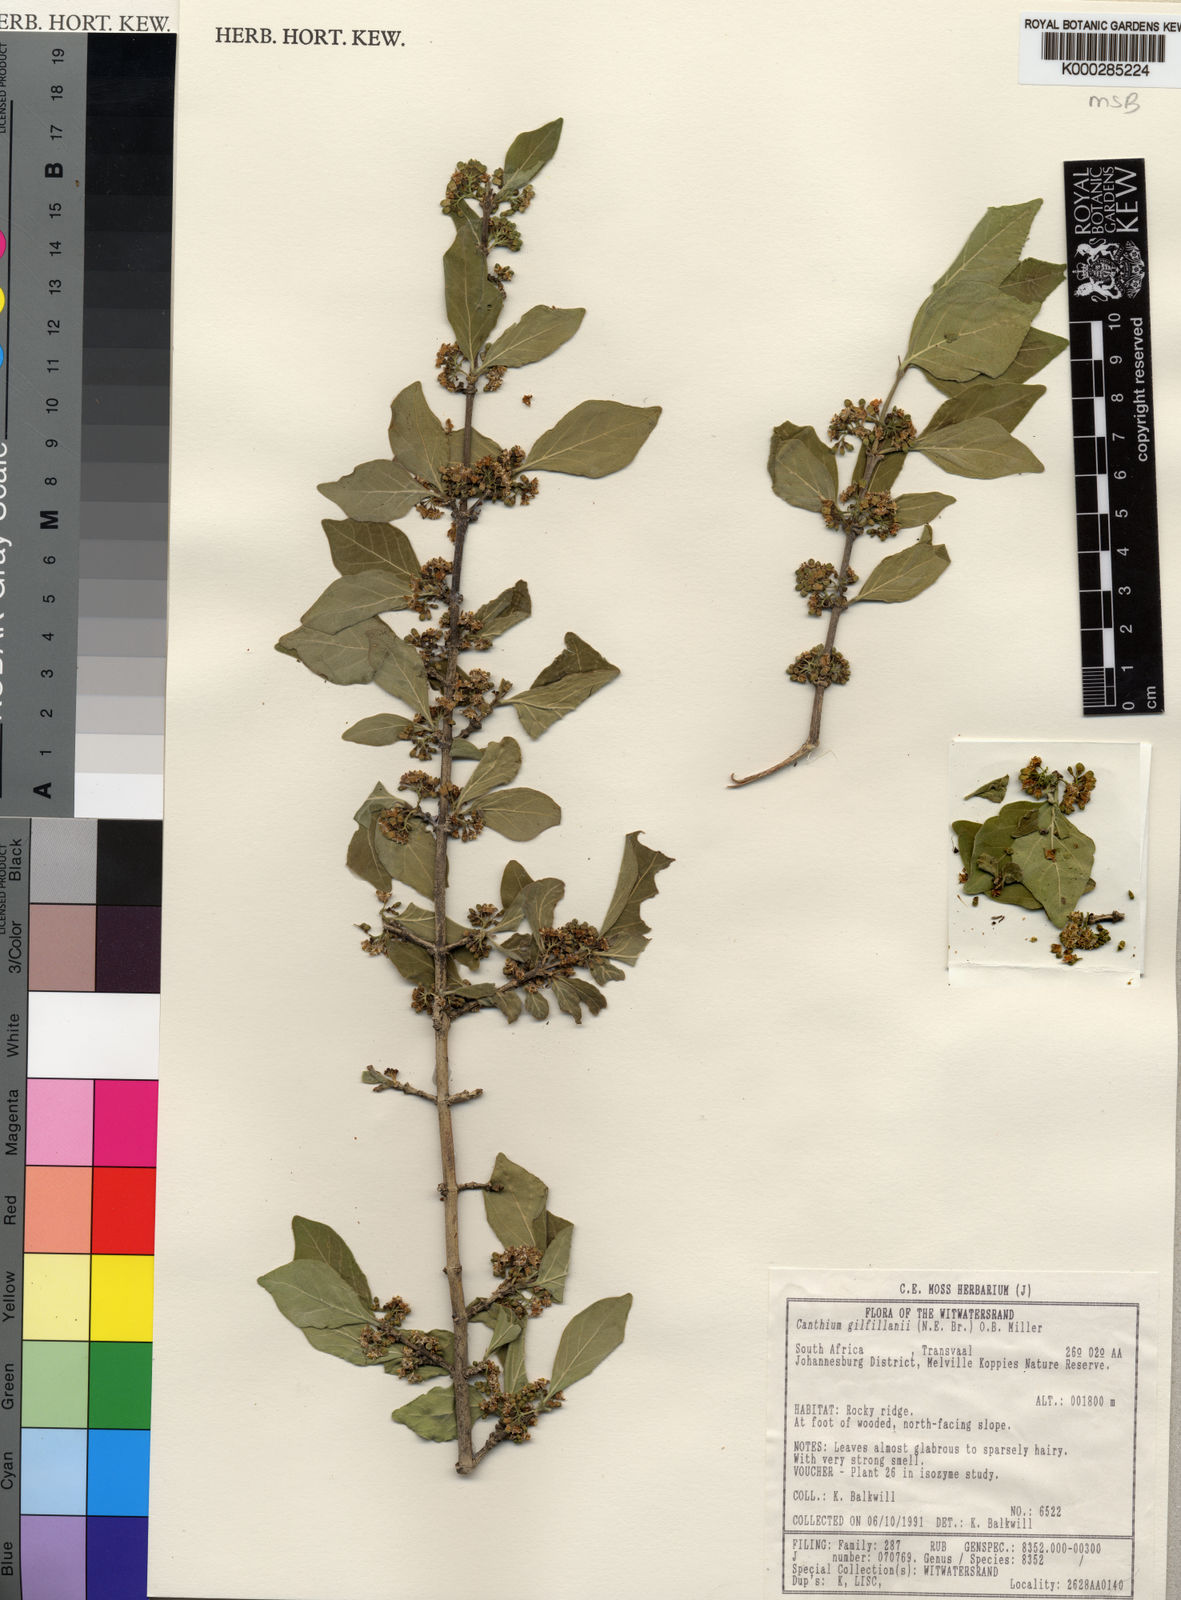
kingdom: Plantae
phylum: Tracheophyta
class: Magnoliopsida
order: Gentianales
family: Rubiaceae
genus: Afrocanthium
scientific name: Afrocanthium gilfillanii
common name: Velvet rock-alder
